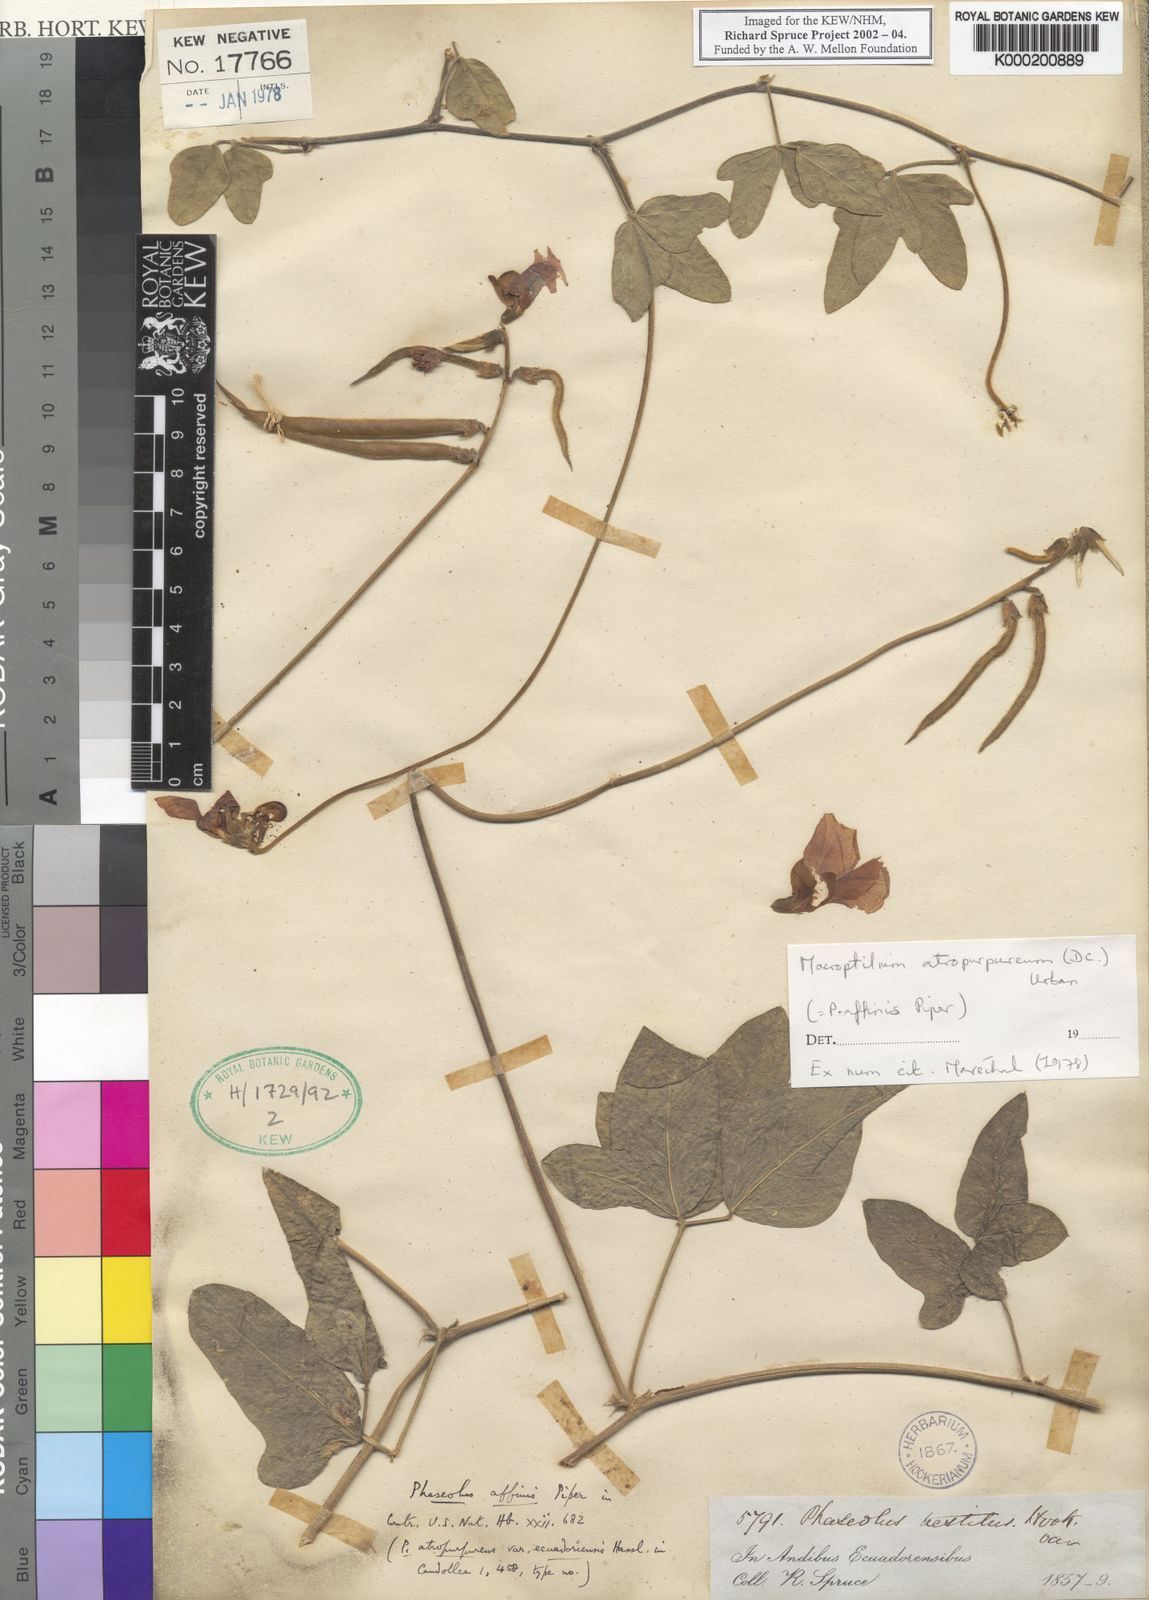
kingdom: Plantae
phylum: Tracheophyta
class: Magnoliopsida
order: Fabales
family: Fabaceae
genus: Macroptilium
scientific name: Macroptilium atropurpureum
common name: Purple bushbean
